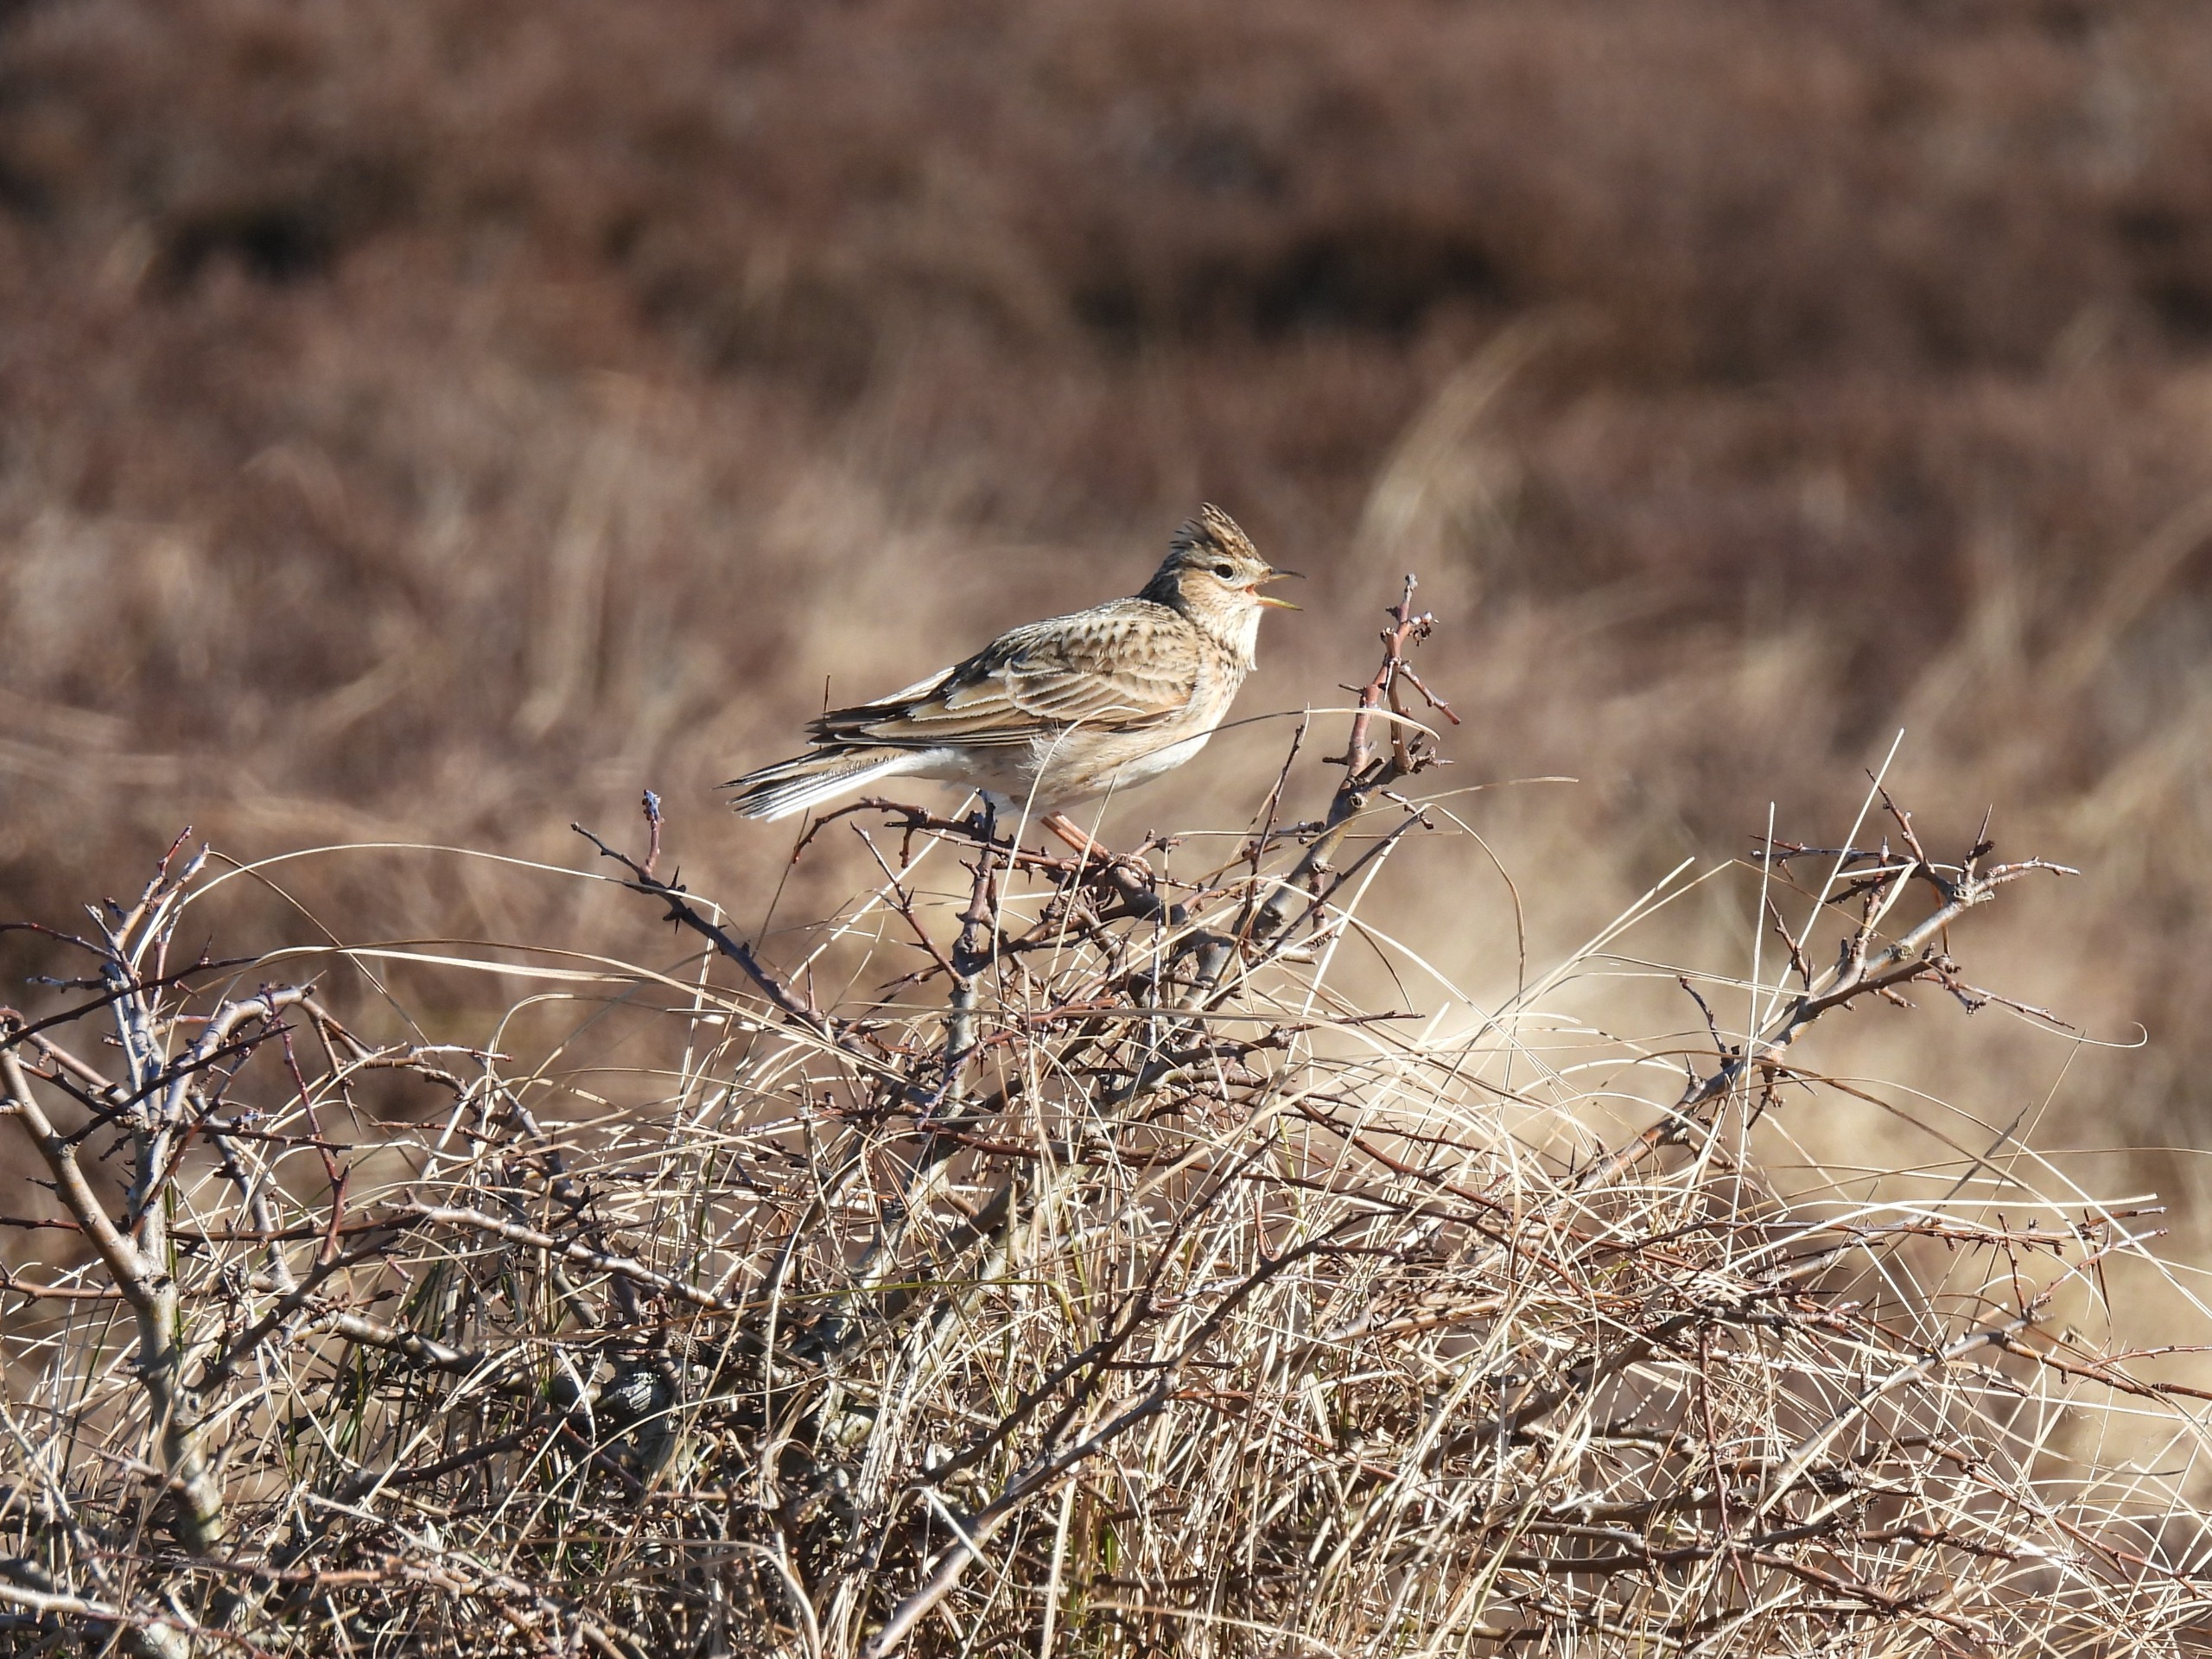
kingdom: Animalia
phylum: Chordata
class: Aves
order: Passeriformes
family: Alaudidae
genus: Alauda
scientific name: Alauda arvensis
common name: Sanglærke
